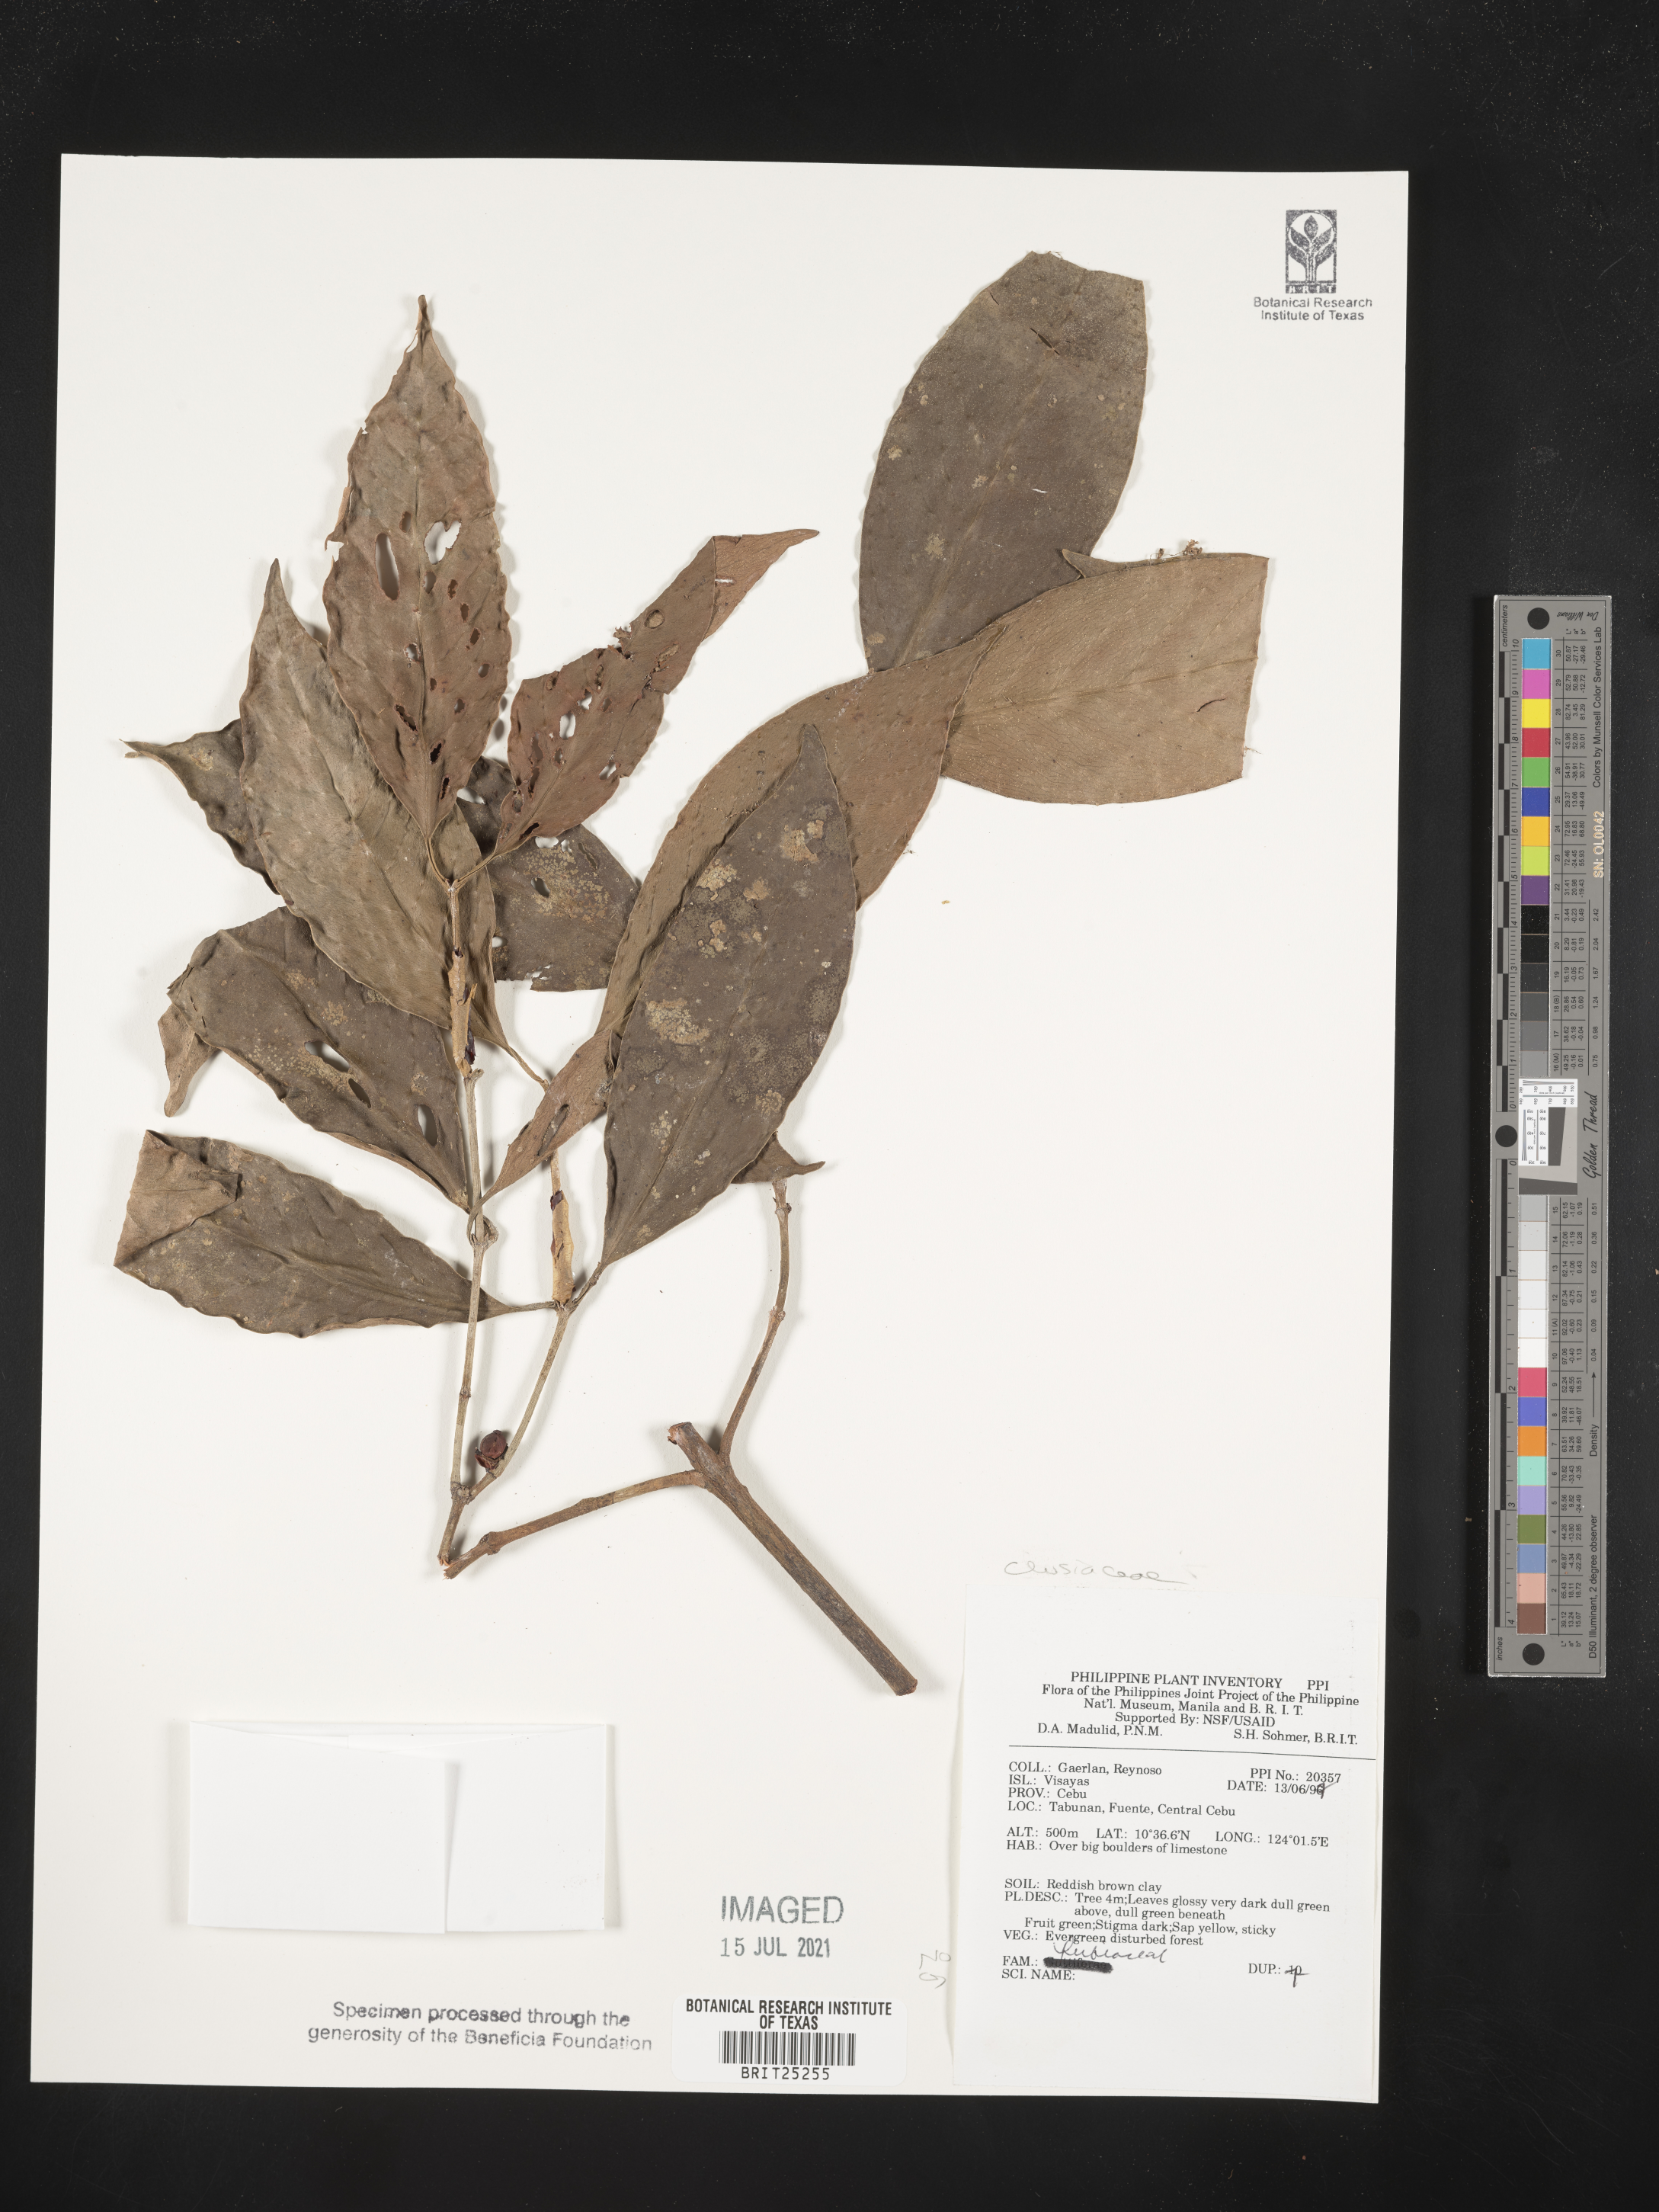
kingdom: Plantae
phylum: Tracheophyta
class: Magnoliopsida
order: Malpighiales
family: Hypericaceae
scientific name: Hypericaceae
